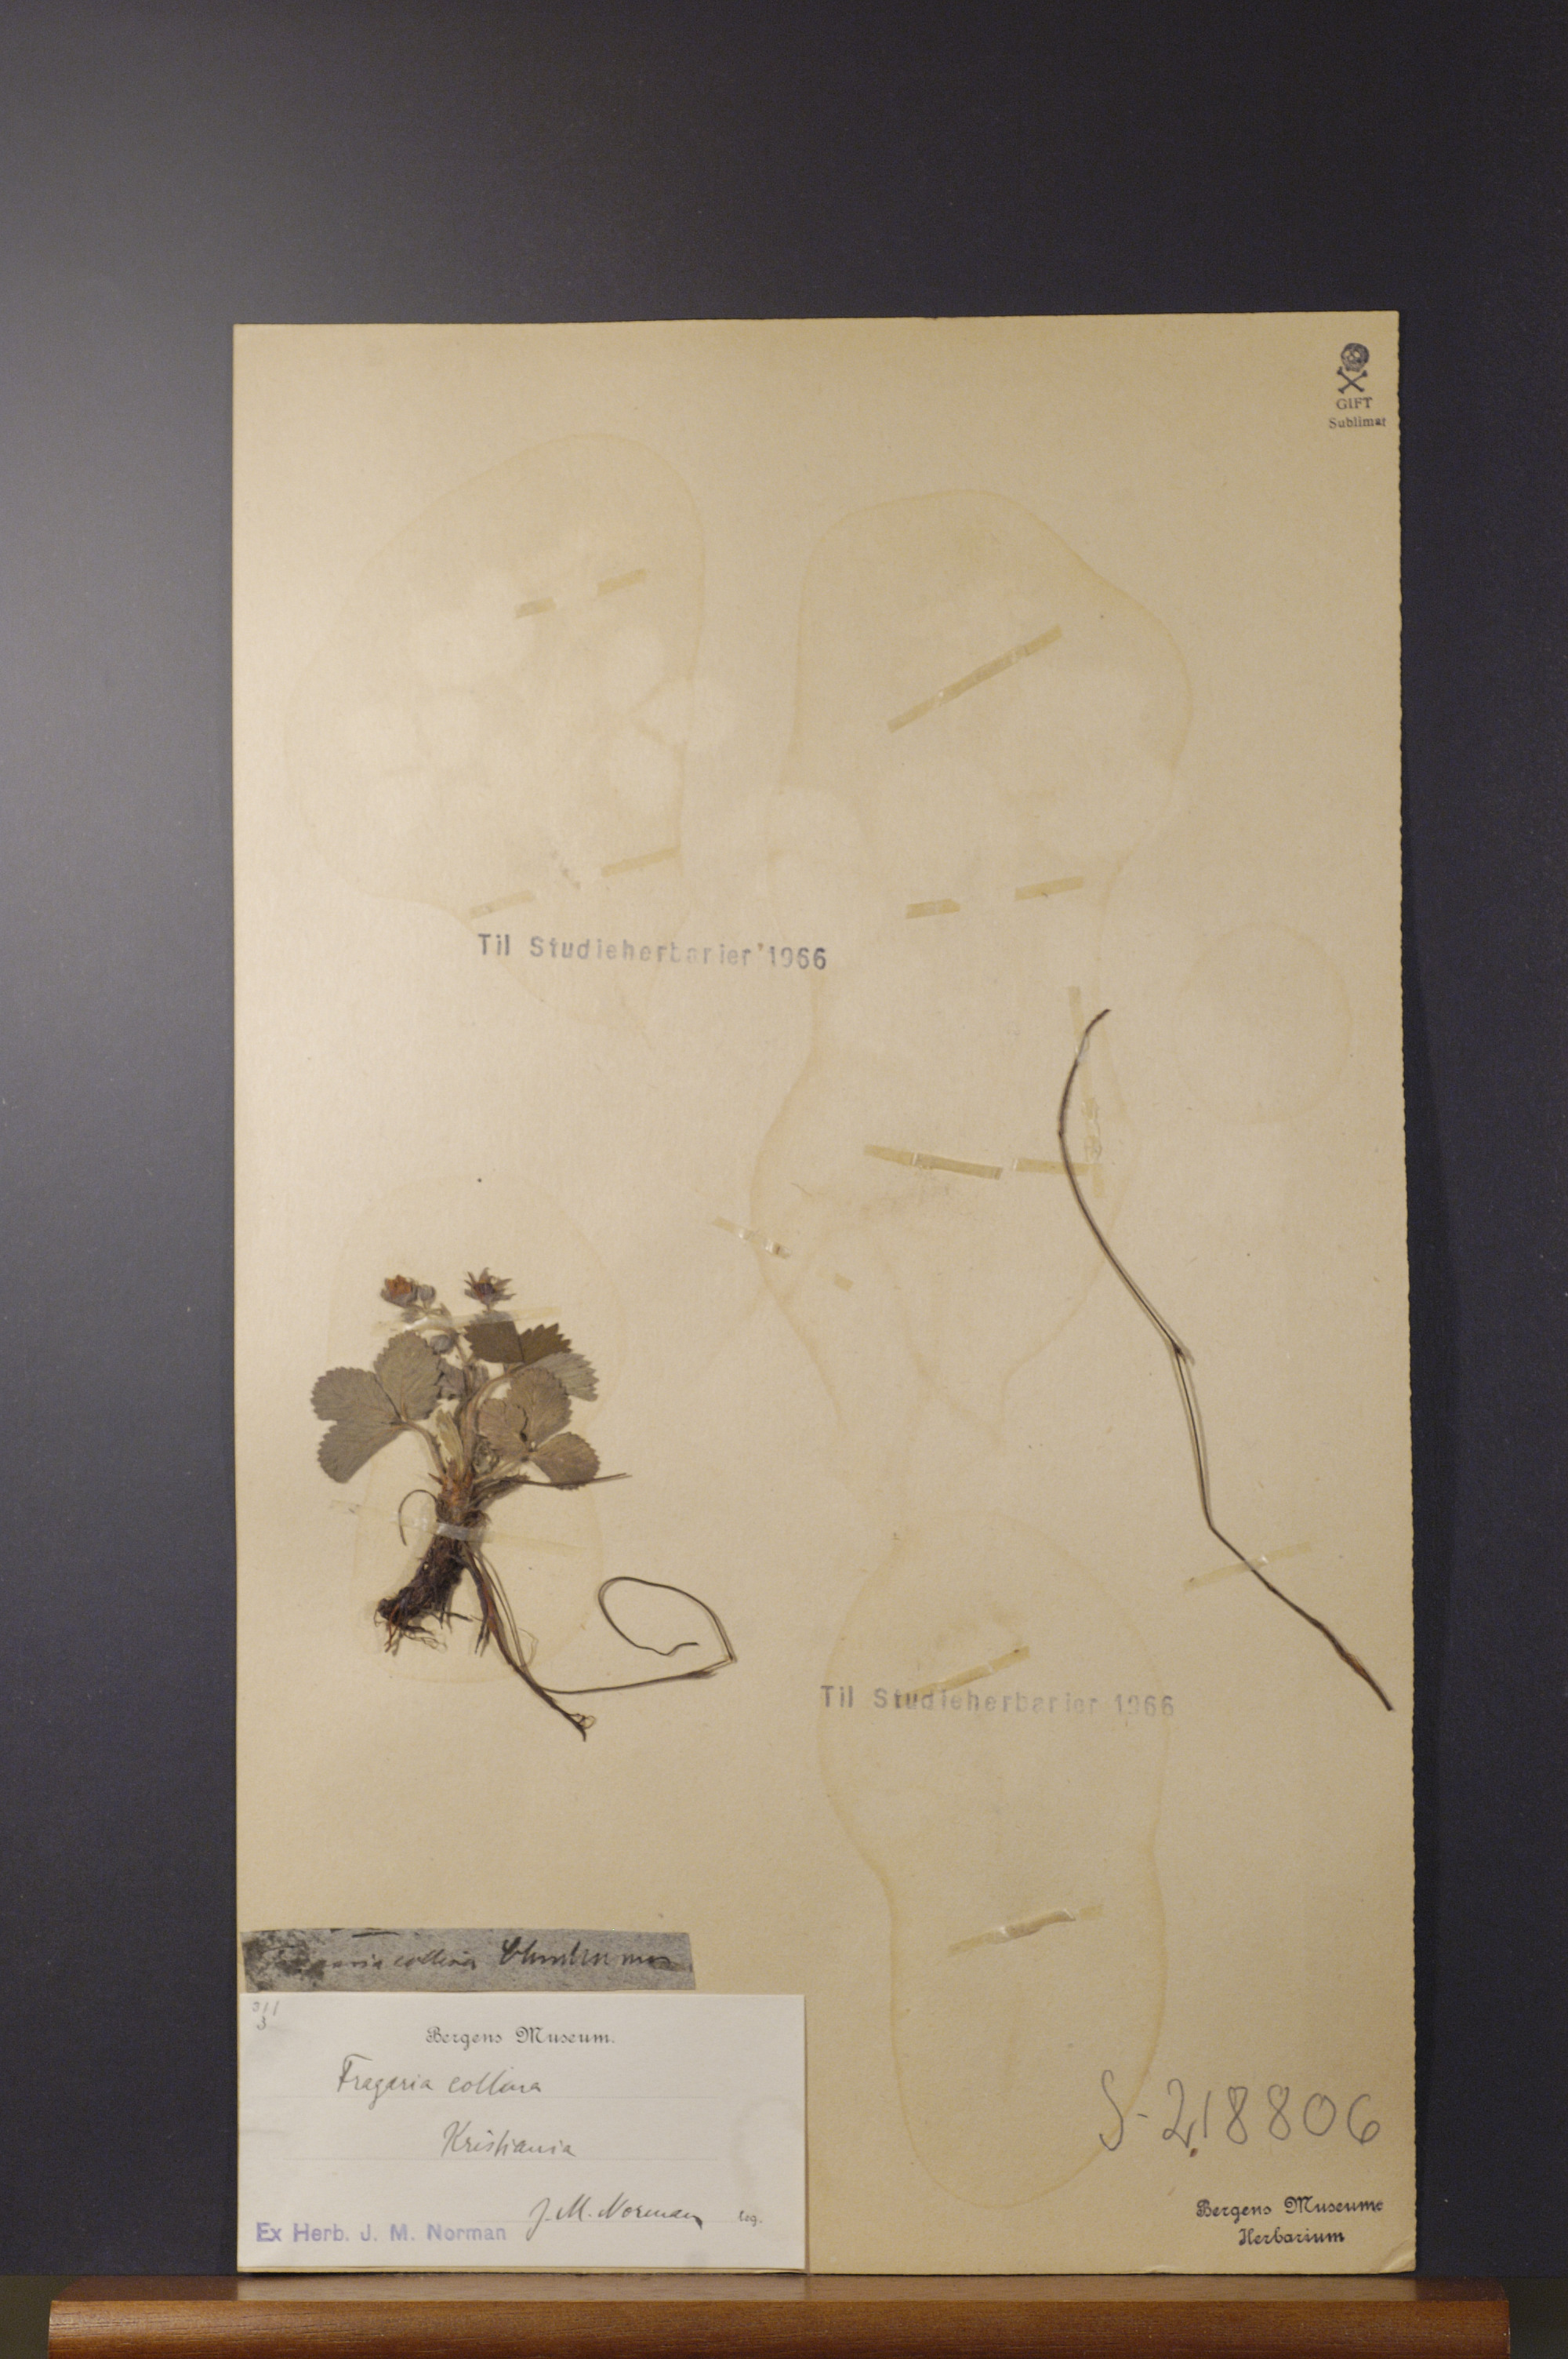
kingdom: Plantae
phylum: Tracheophyta
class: Magnoliopsida
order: Rosales
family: Rosaceae
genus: Fragaria
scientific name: Fragaria viridis
